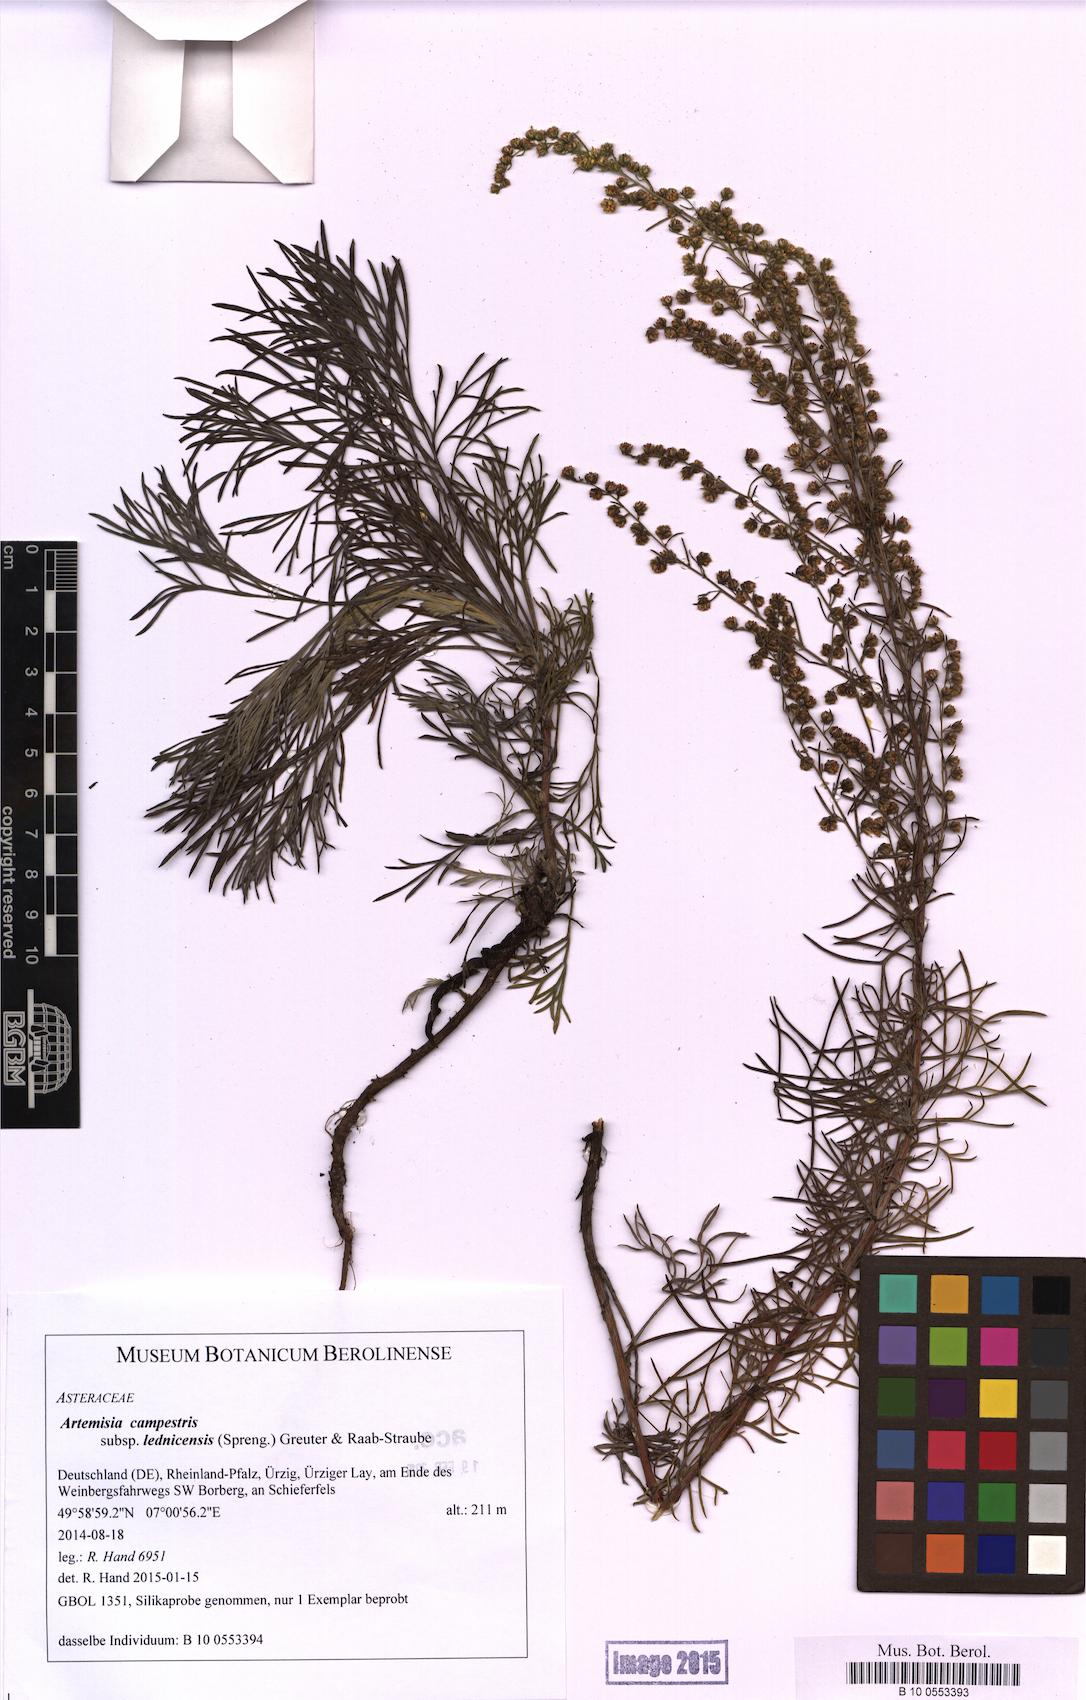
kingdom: Plantae
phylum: Tracheophyta
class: Magnoliopsida
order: Asterales
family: Asteraceae
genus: Artemisia
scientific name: Artemisia campestris
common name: Field wormwood
